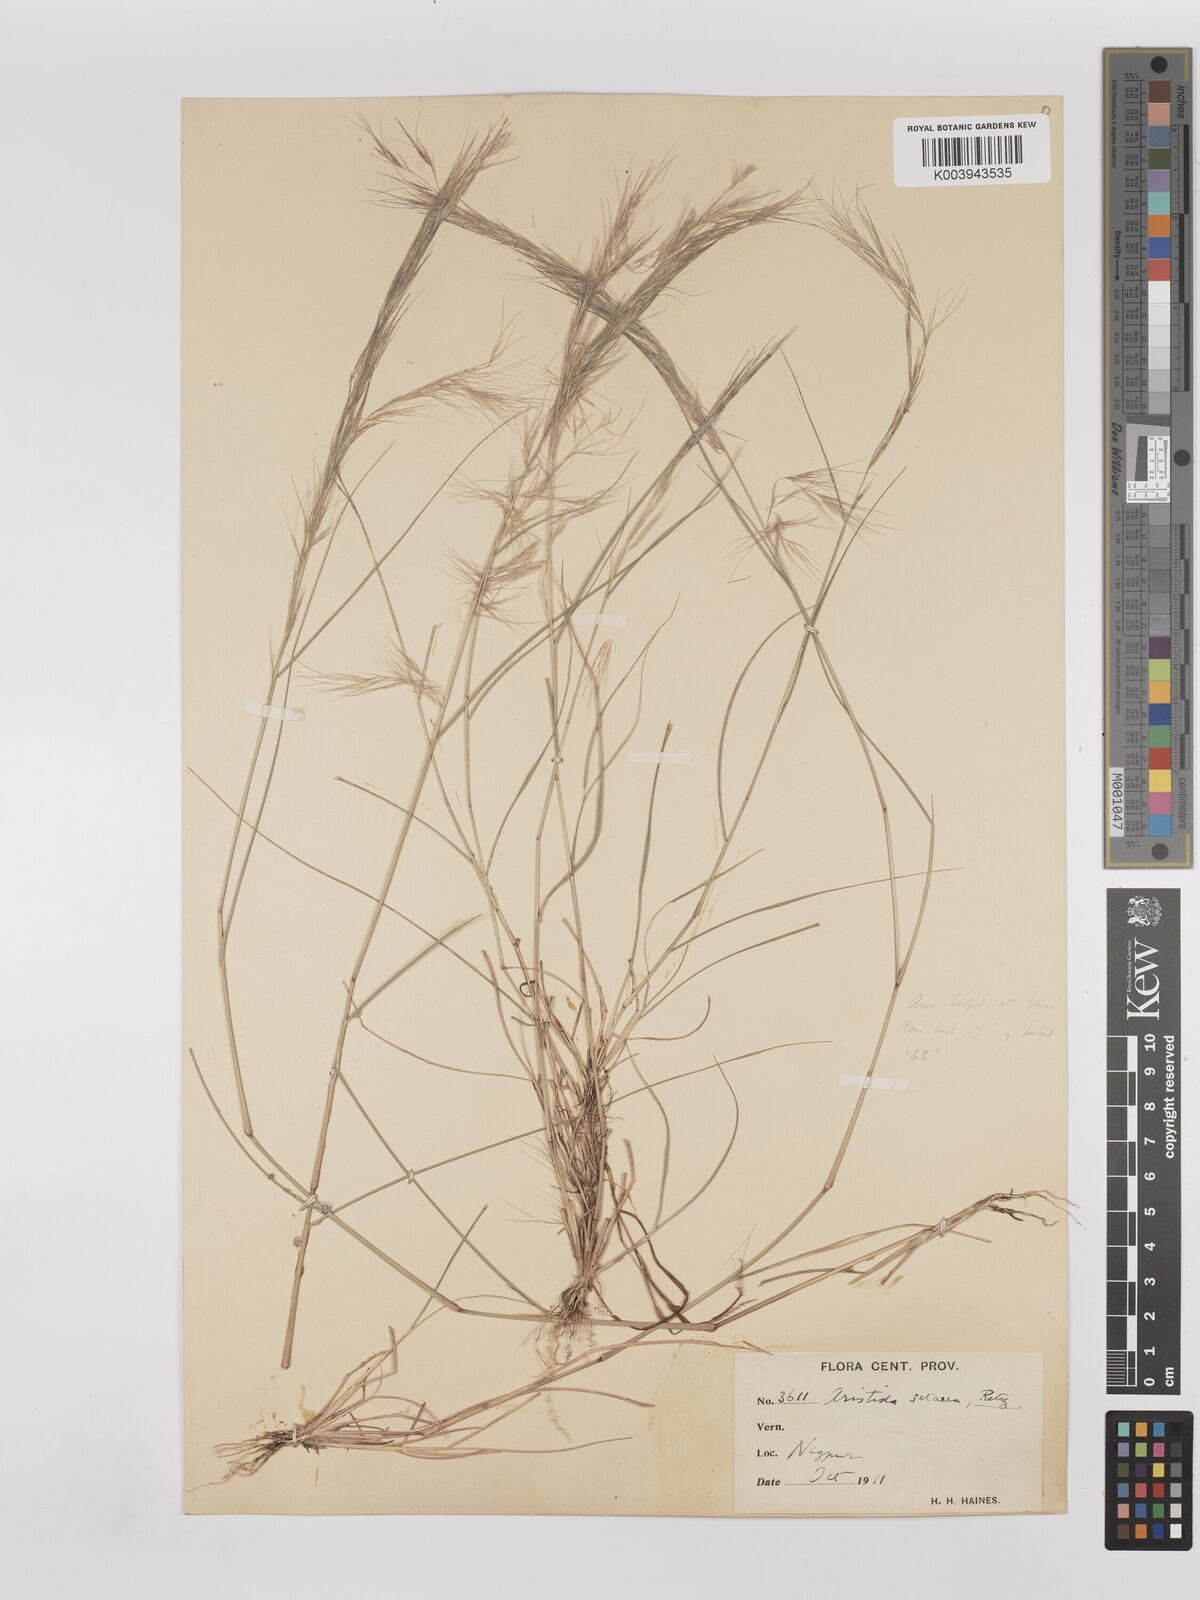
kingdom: Plantae
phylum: Tracheophyta
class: Liliopsida
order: Poales
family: Poaceae
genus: Aristida
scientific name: Aristida setacea
